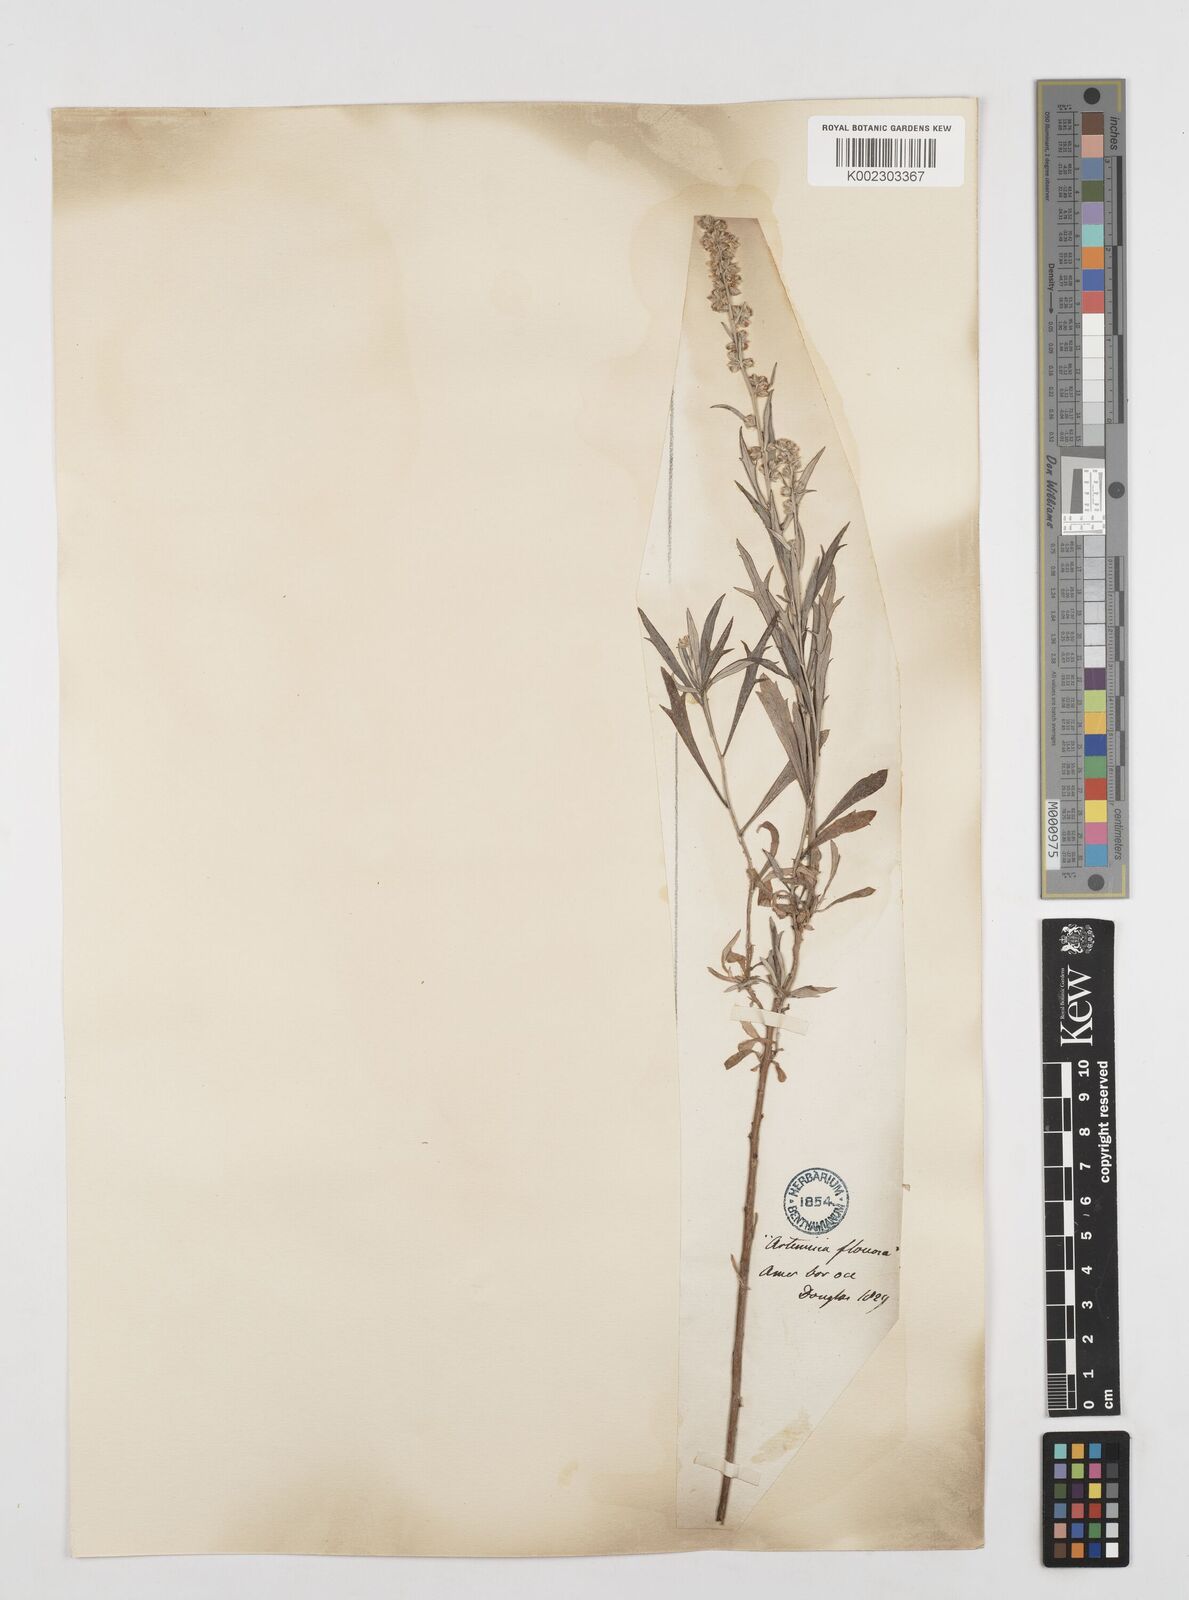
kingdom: Plantae
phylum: Tracheophyta
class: Magnoliopsida
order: Asterales
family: Asteraceae
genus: Artemisia
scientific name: Artemisia
